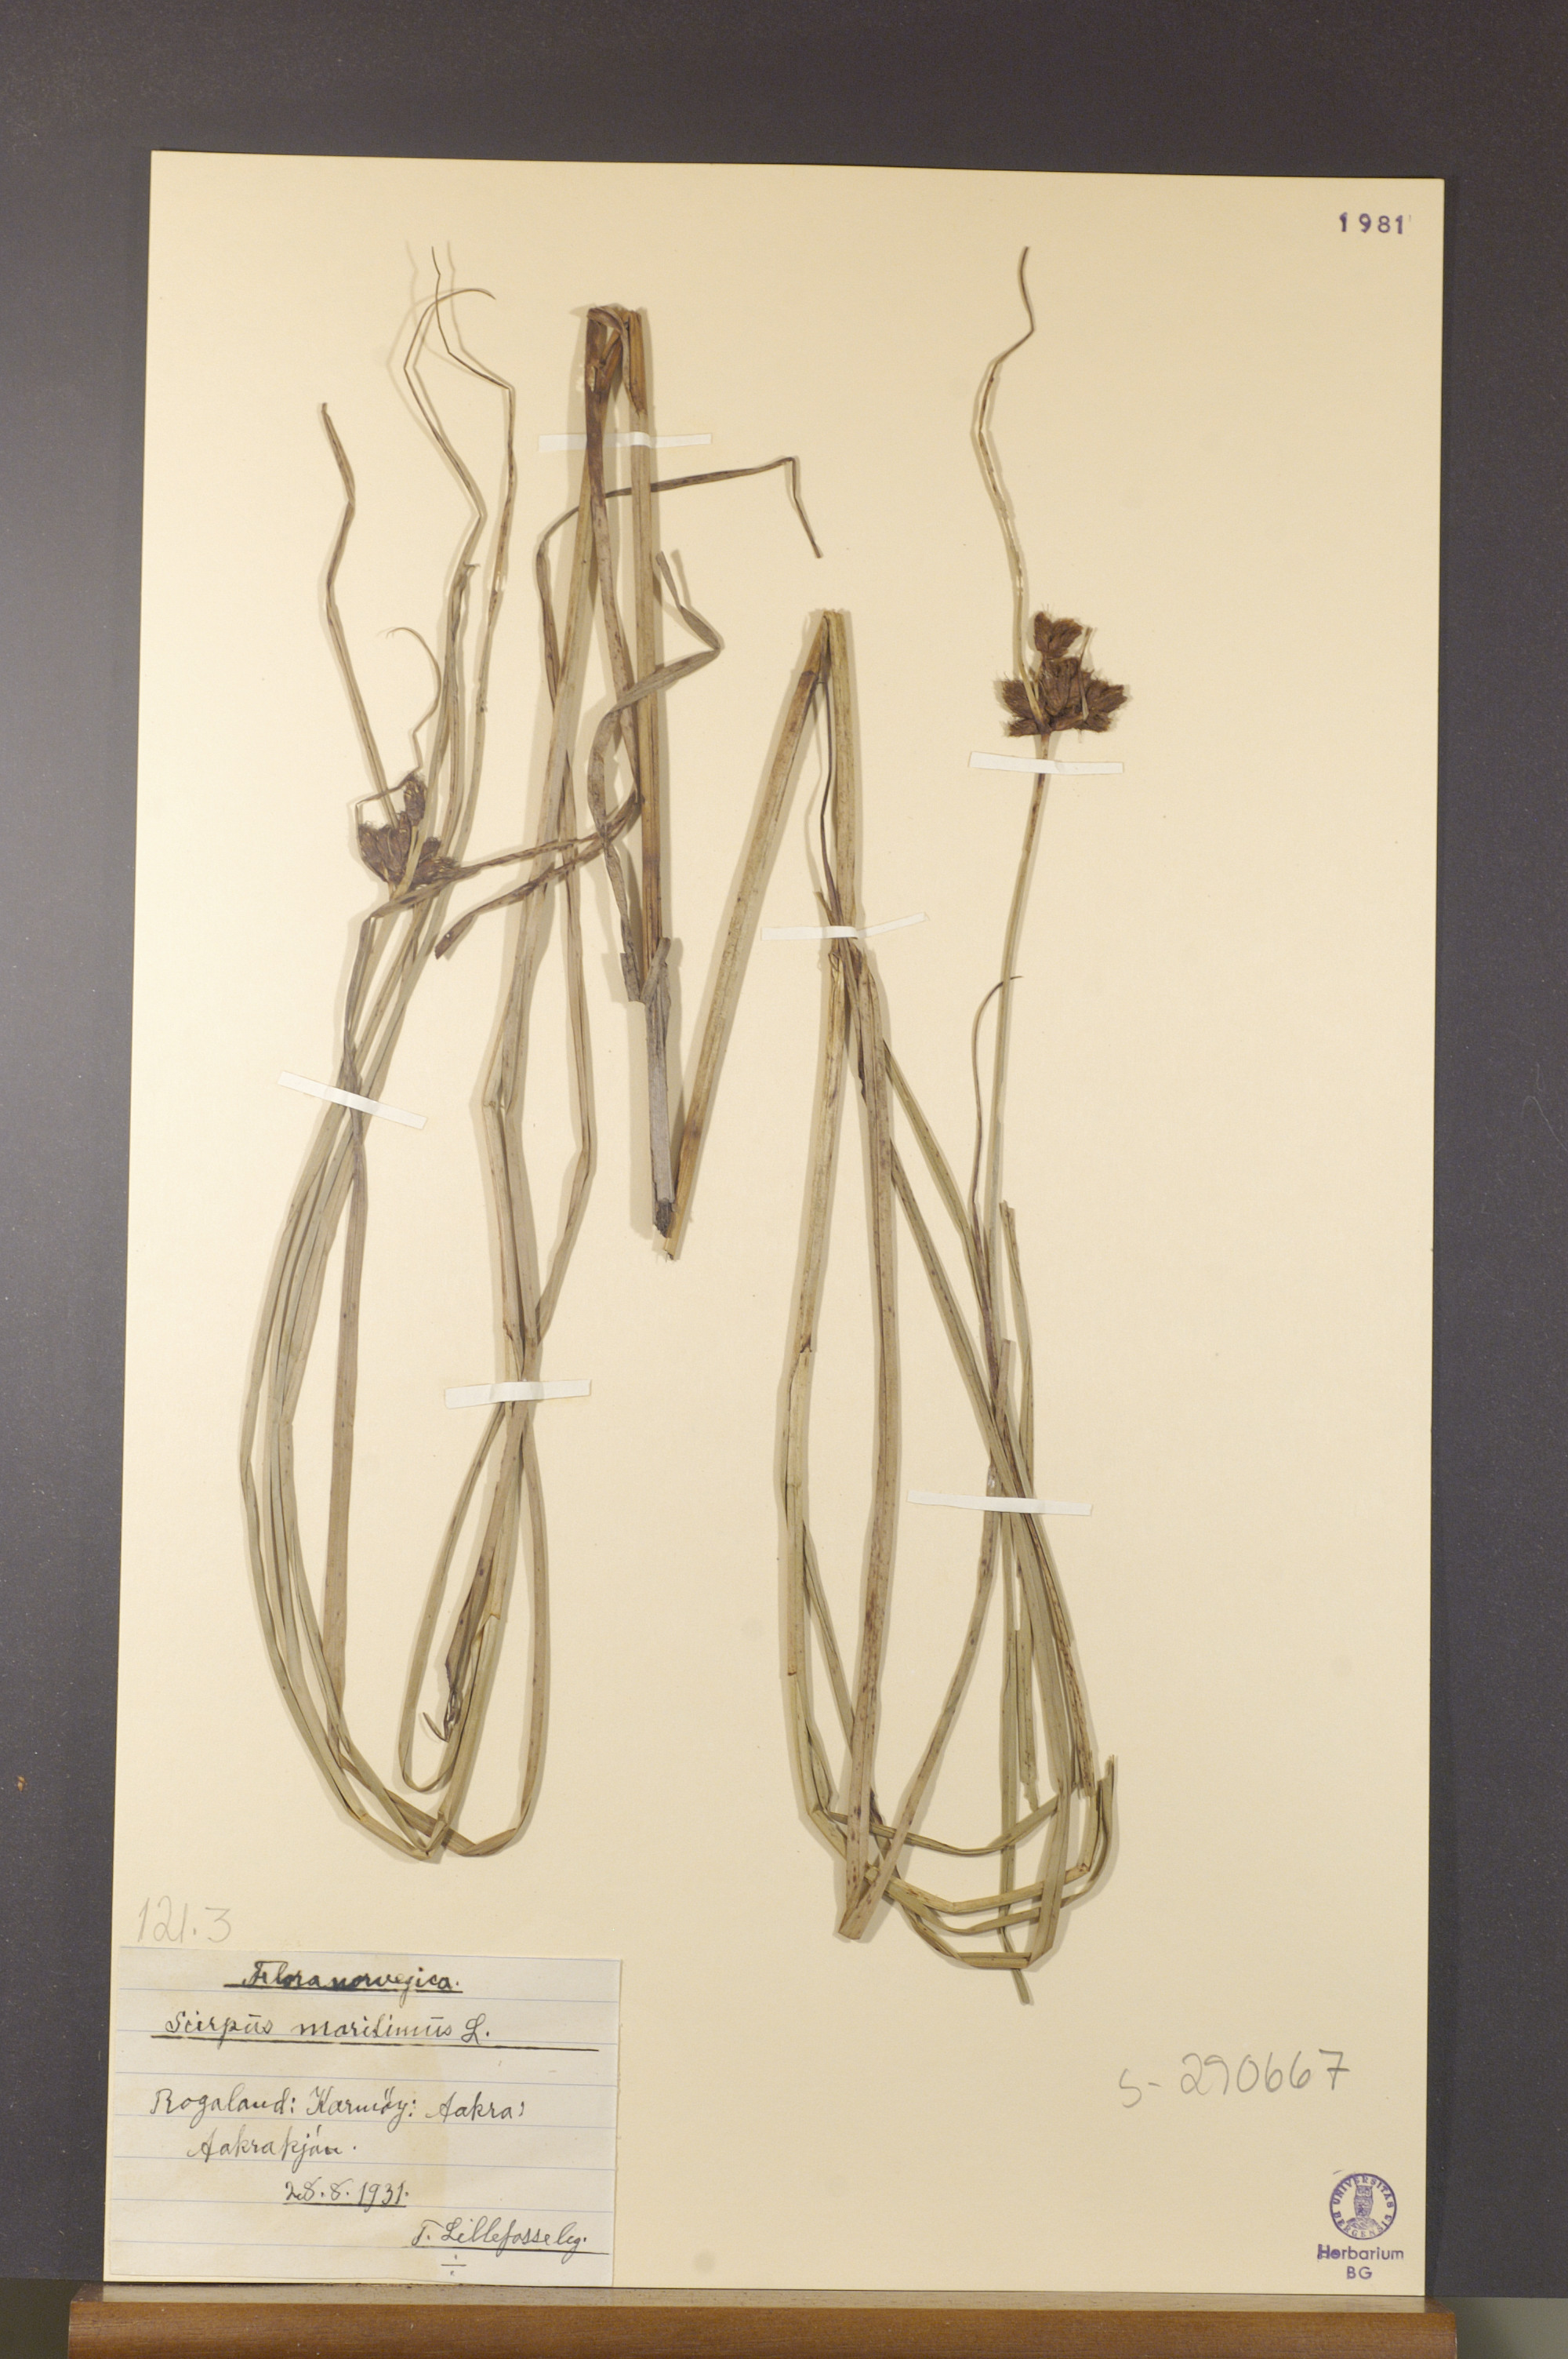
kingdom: Plantae
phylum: Tracheophyta
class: Liliopsida
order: Poales
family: Cyperaceae
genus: Bolboschoenus
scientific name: Bolboschoenus maritimus
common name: Sea club-rush
